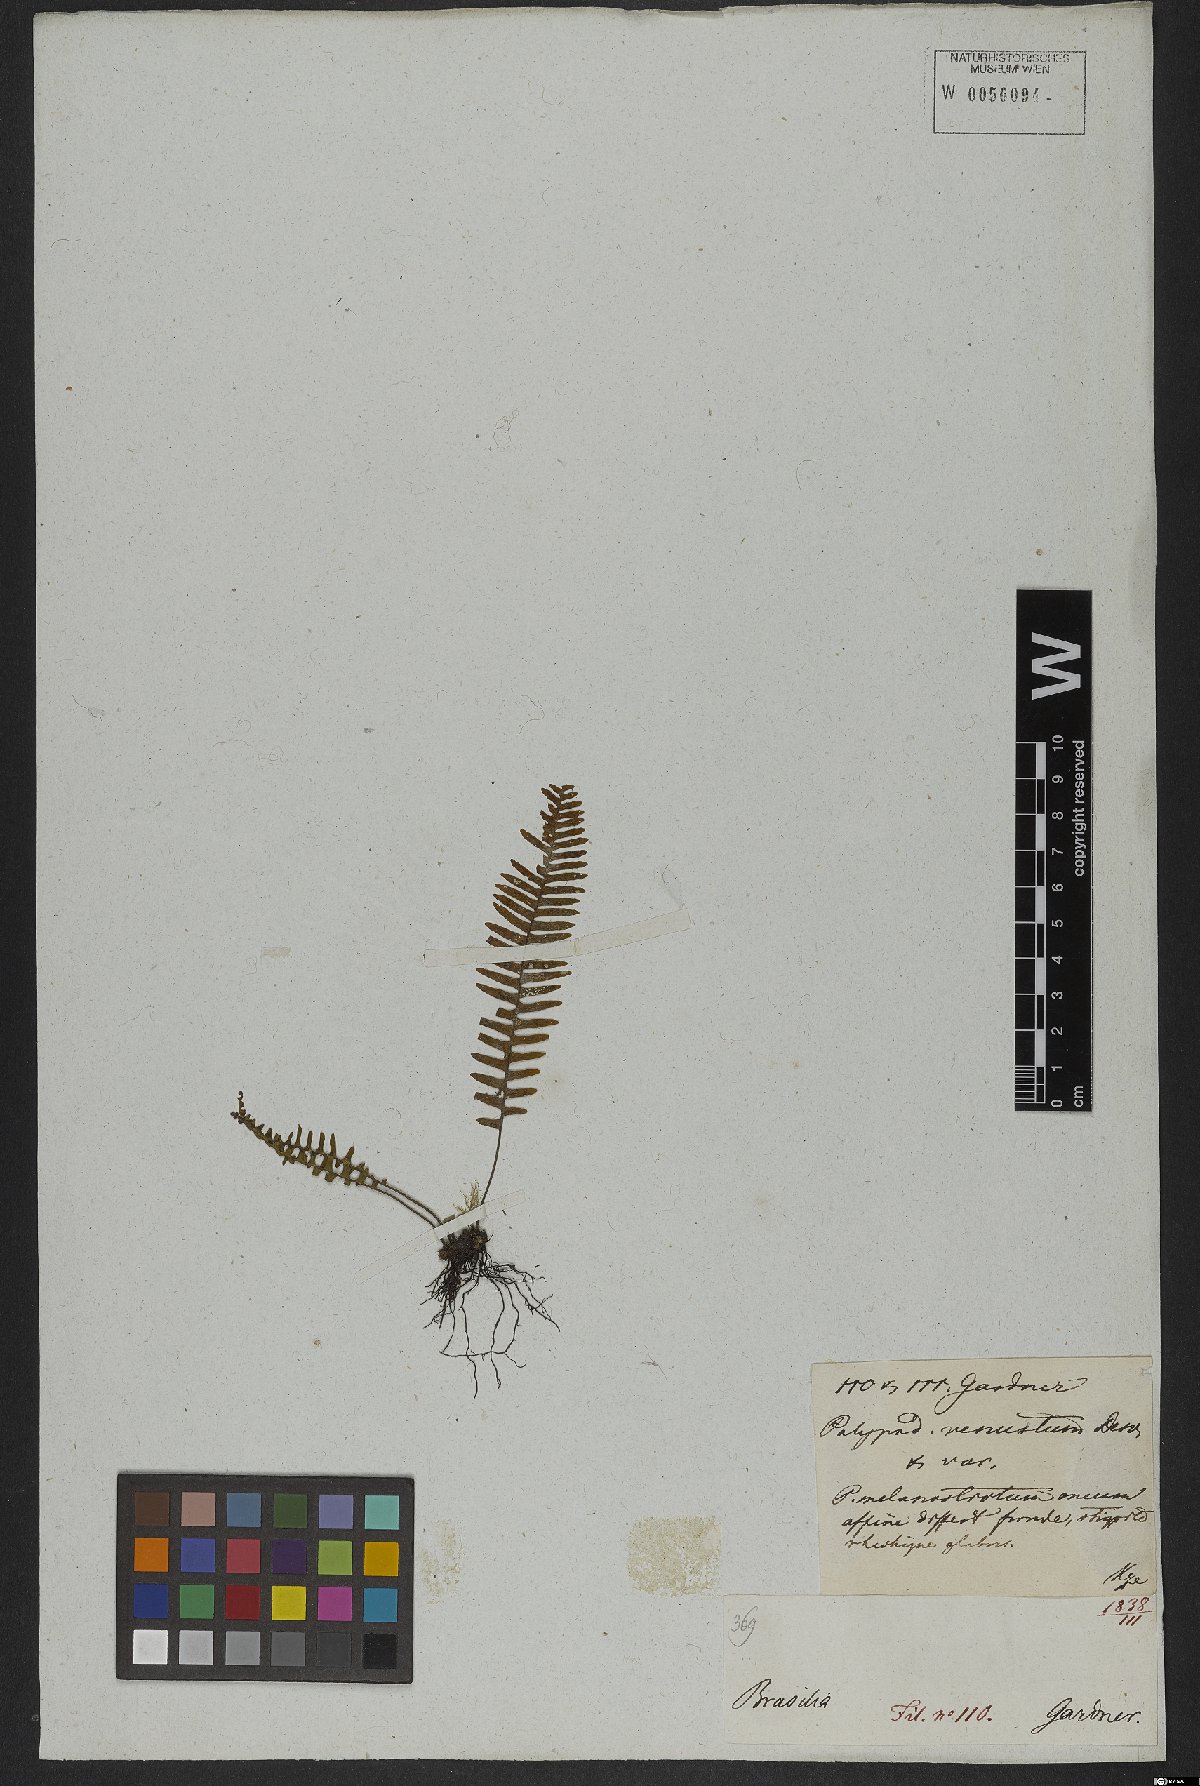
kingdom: Plantae
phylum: Tracheophyta
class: Polypodiopsida
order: Polypodiales
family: Polypodiaceae
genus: Mycopteris
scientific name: Mycopteris taxifolia
